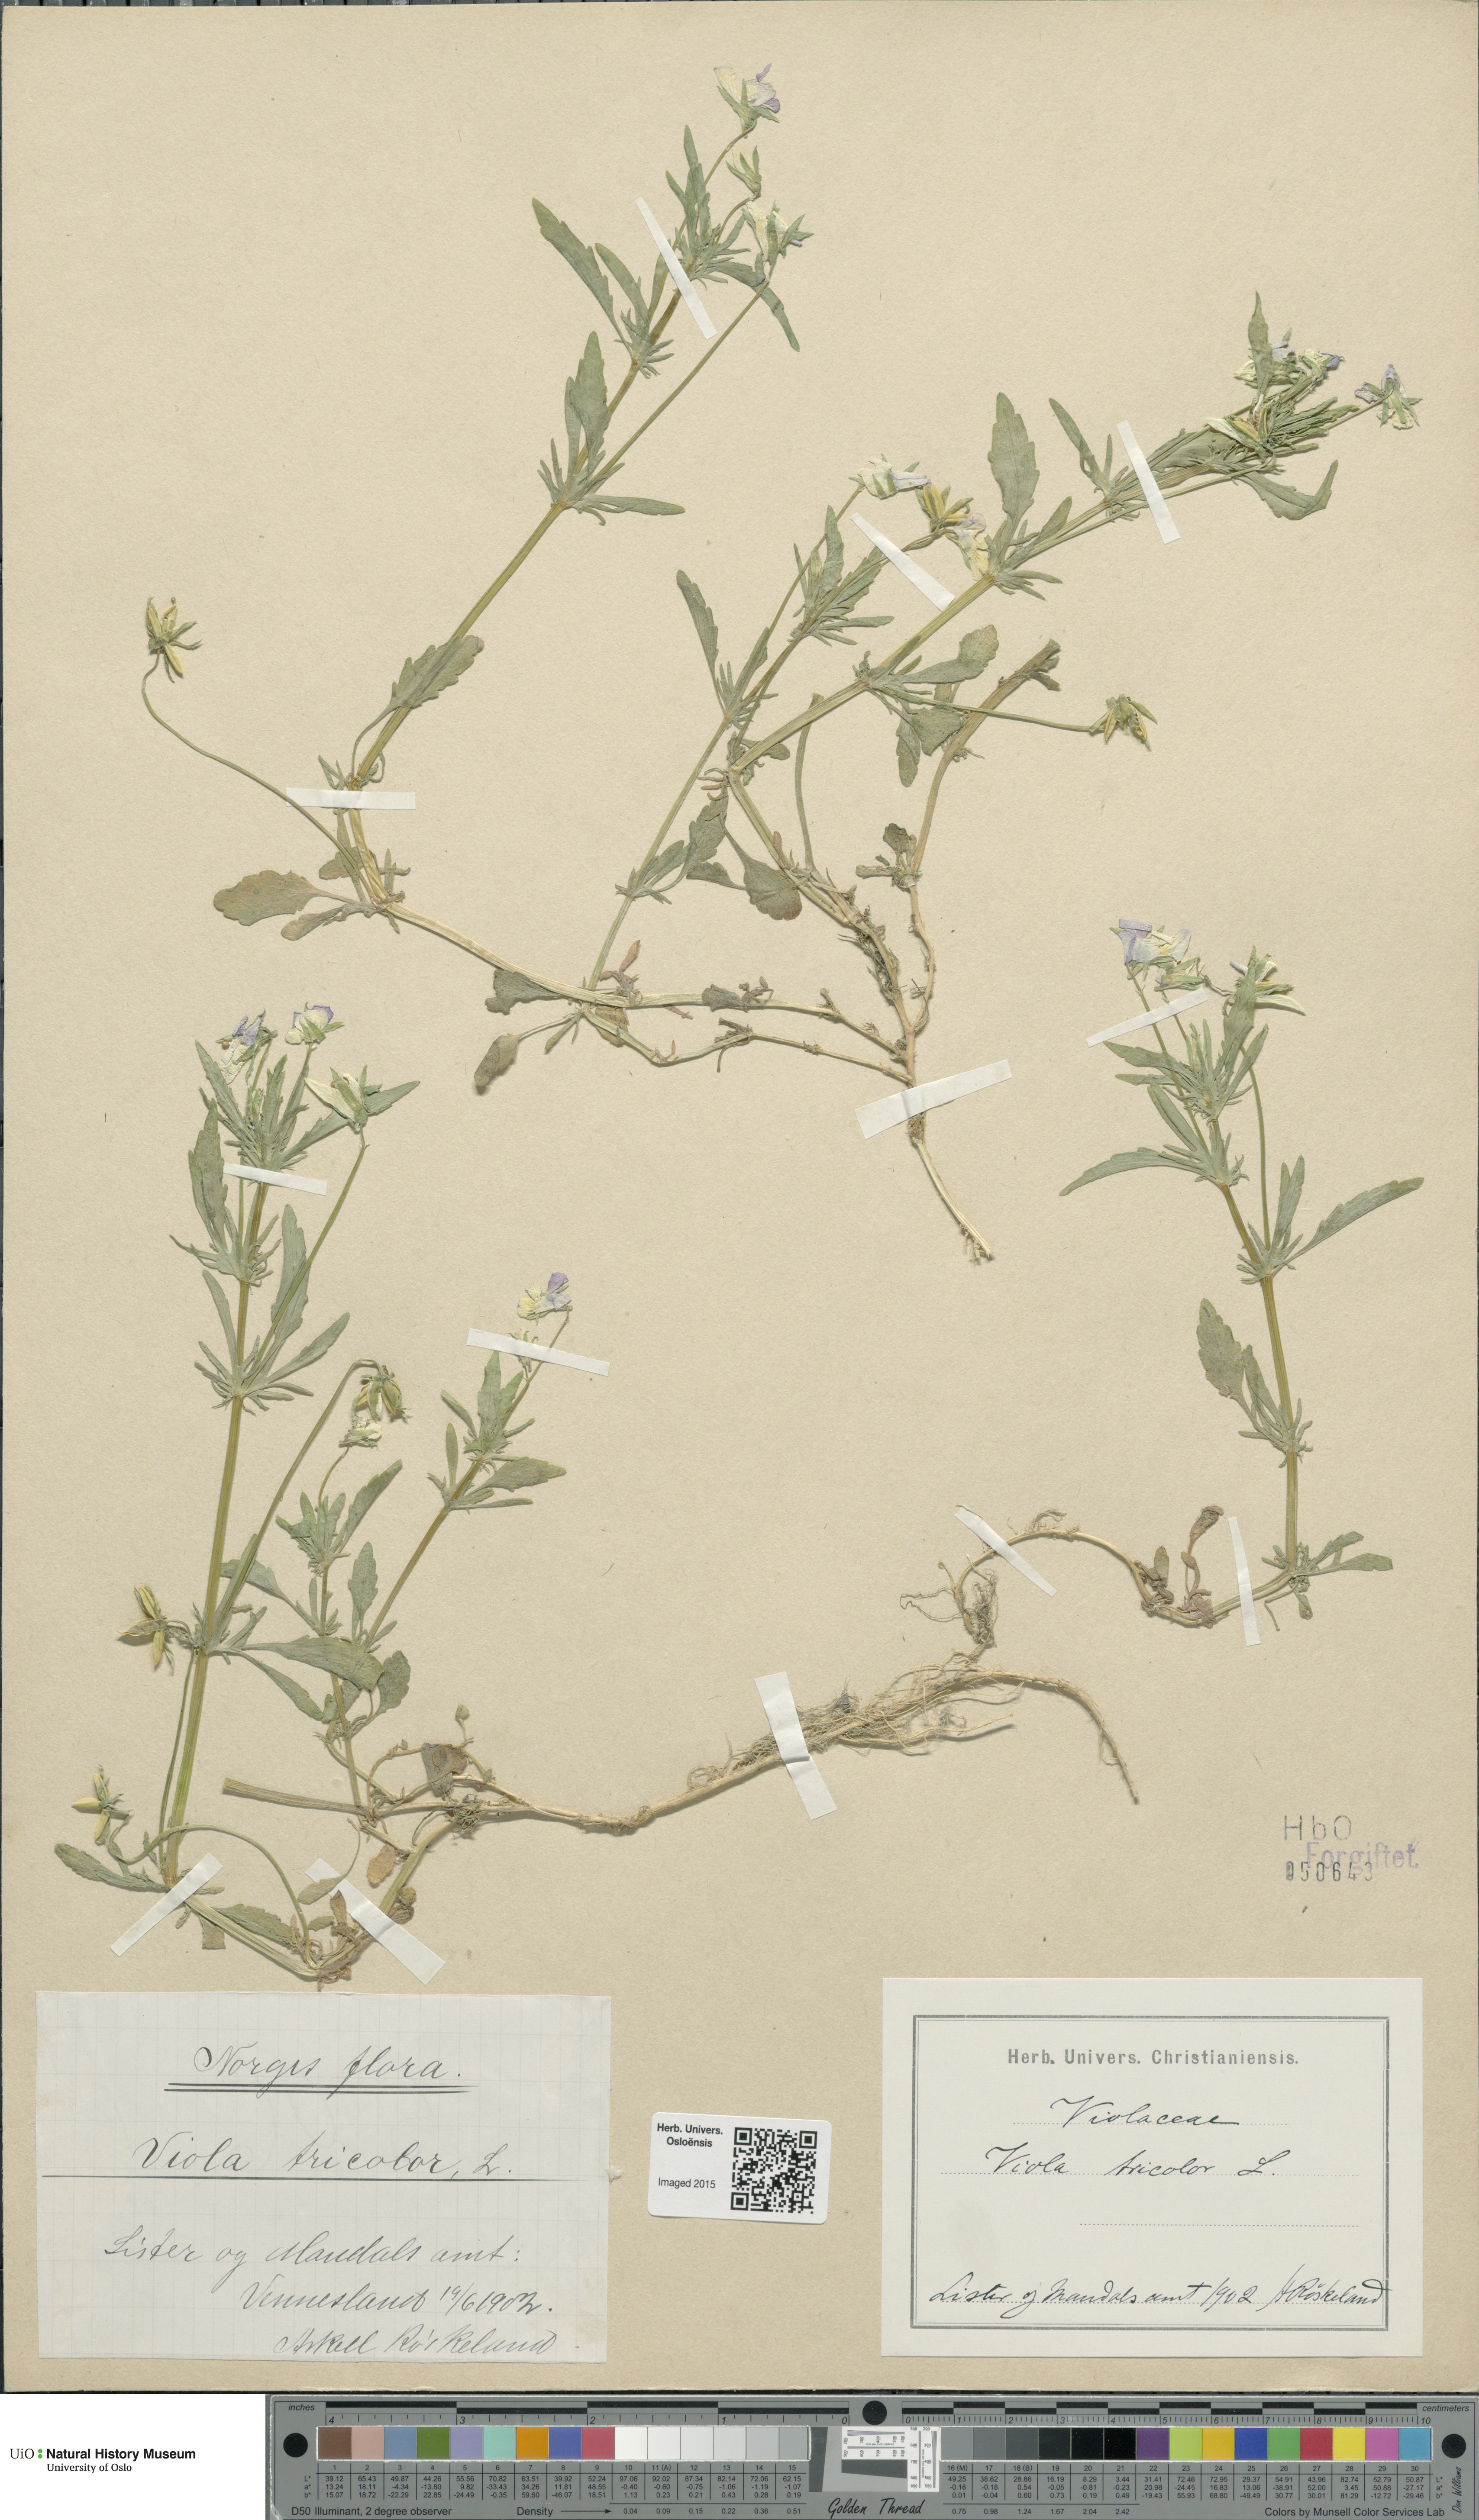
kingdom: Plantae
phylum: Tracheophyta
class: Magnoliopsida
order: Malpighiales
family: Violaceae
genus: Viola
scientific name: Viola tricolor
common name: Pansy
